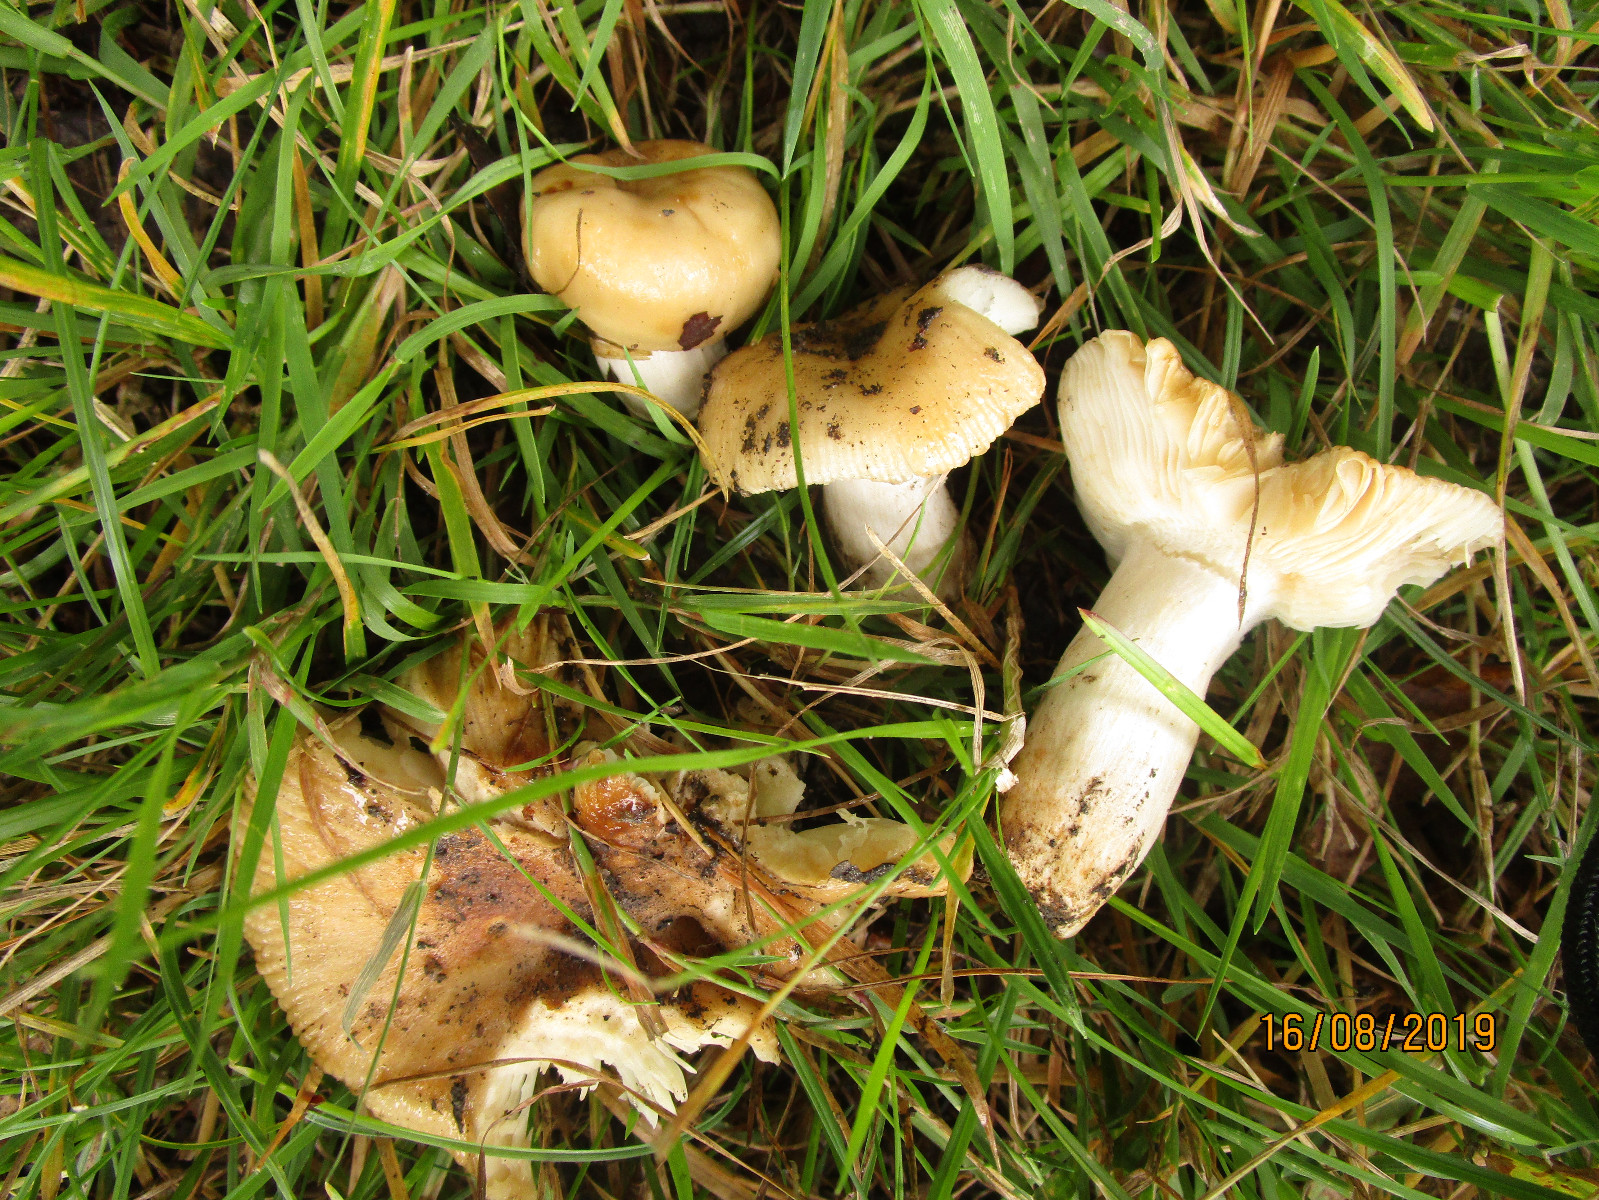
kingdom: Fungi
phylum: Basidiomycota
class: Agaricomycetes
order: Russulales
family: Russulaceae
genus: Russula
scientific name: Russula farinipes
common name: gul kam-skørhat
